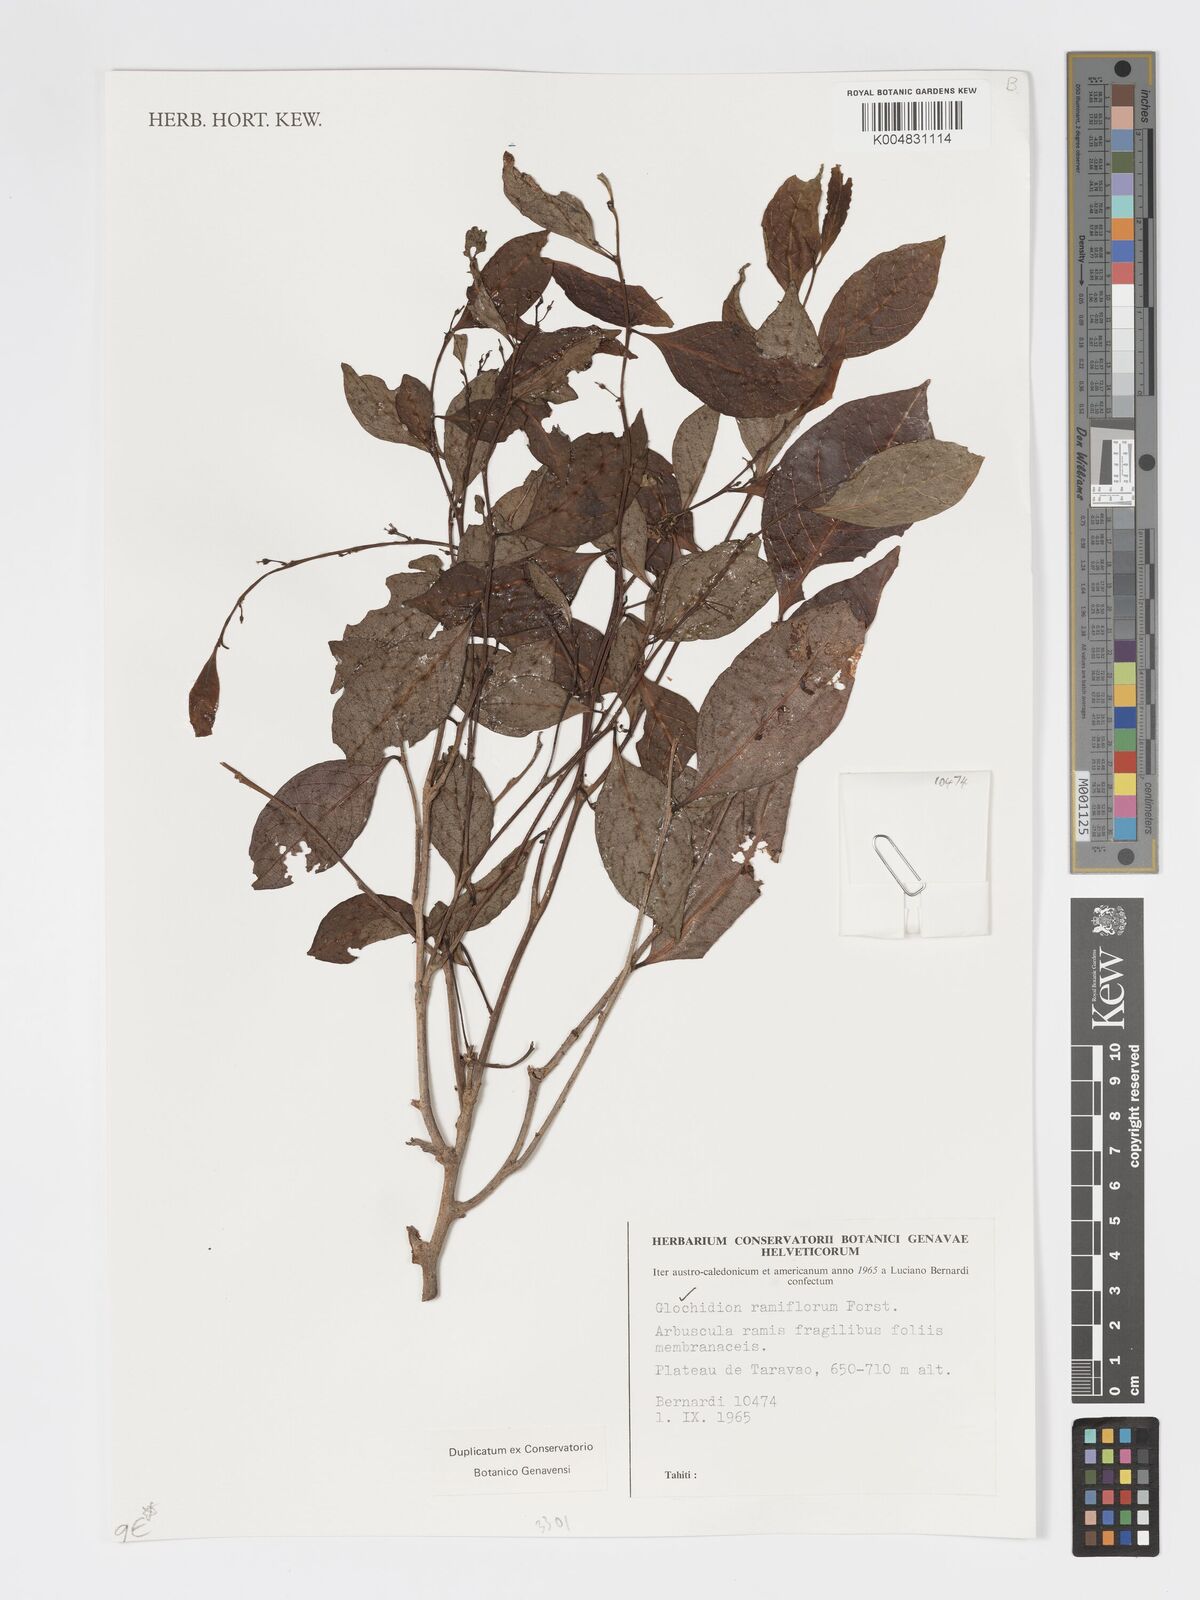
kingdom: Plantae
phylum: Tracheophyta
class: Magnoliopsida
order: Malpighiales
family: Phyllanthaceae
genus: Glochidion
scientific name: Glochidion ramiflorum
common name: Masame
